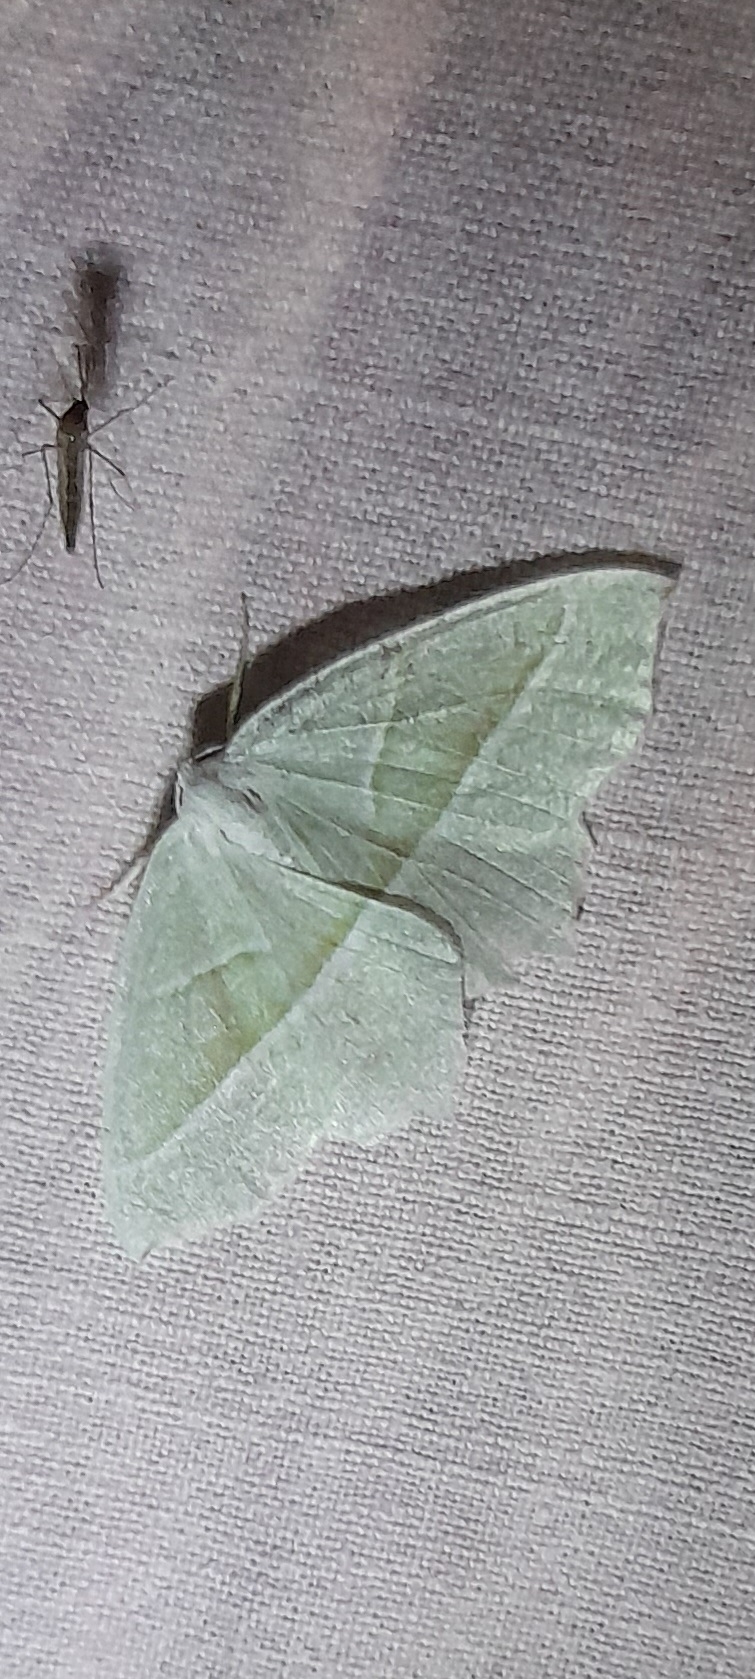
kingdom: Animalia
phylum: Arthropoda
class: Insecta
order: Lepidoptera
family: Geometridae
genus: Campaea
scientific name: Campaea margaritaria
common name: Perlemåler
